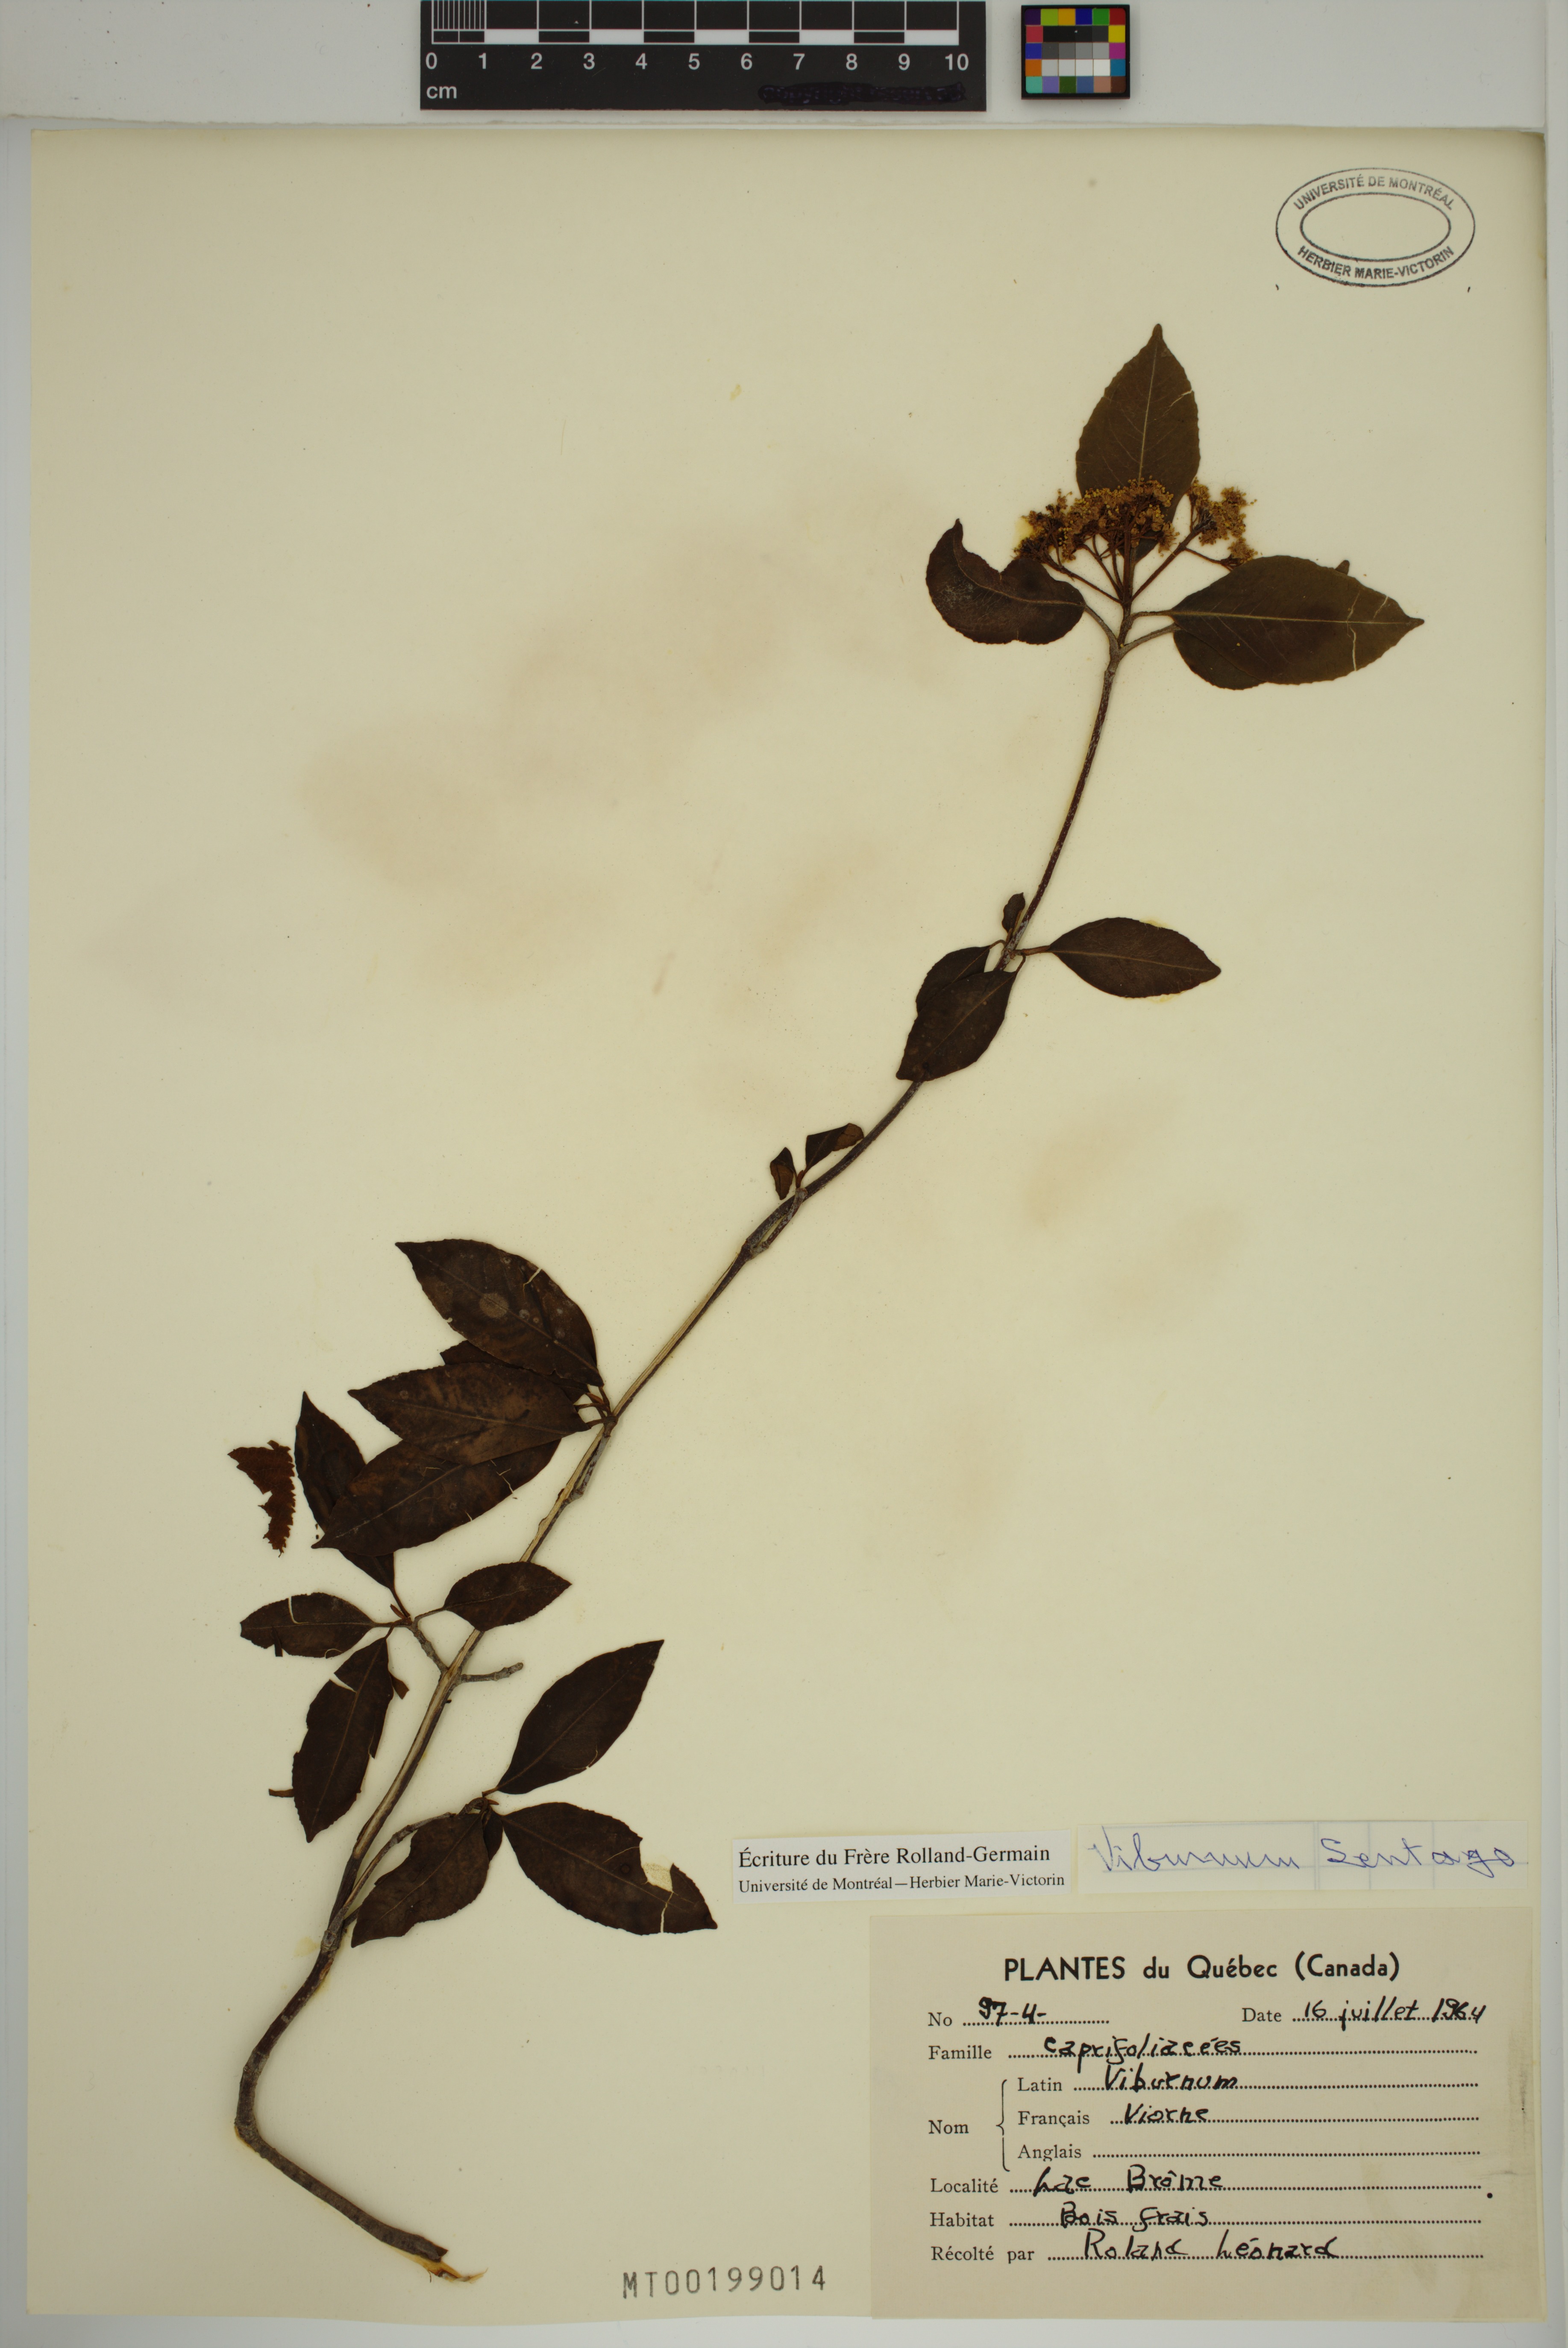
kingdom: Plantae
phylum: Tracheophyta
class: Magnoliopsida
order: Dipsacales
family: Viburnaceae
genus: Viburnum
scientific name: Viburnum lentago
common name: Black haw
